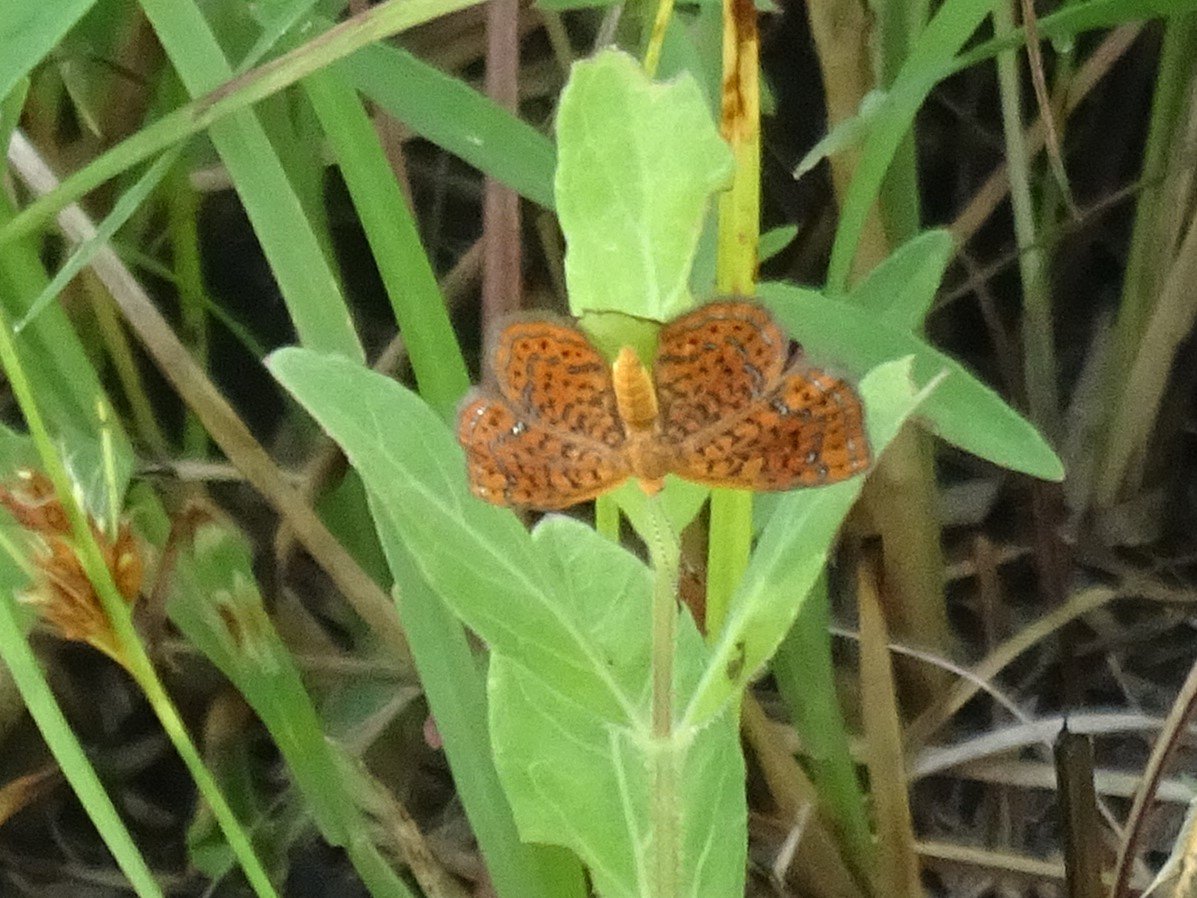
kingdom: Animalia
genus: Calephelis
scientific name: Calephelis virginiensis
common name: Little Metalmark
